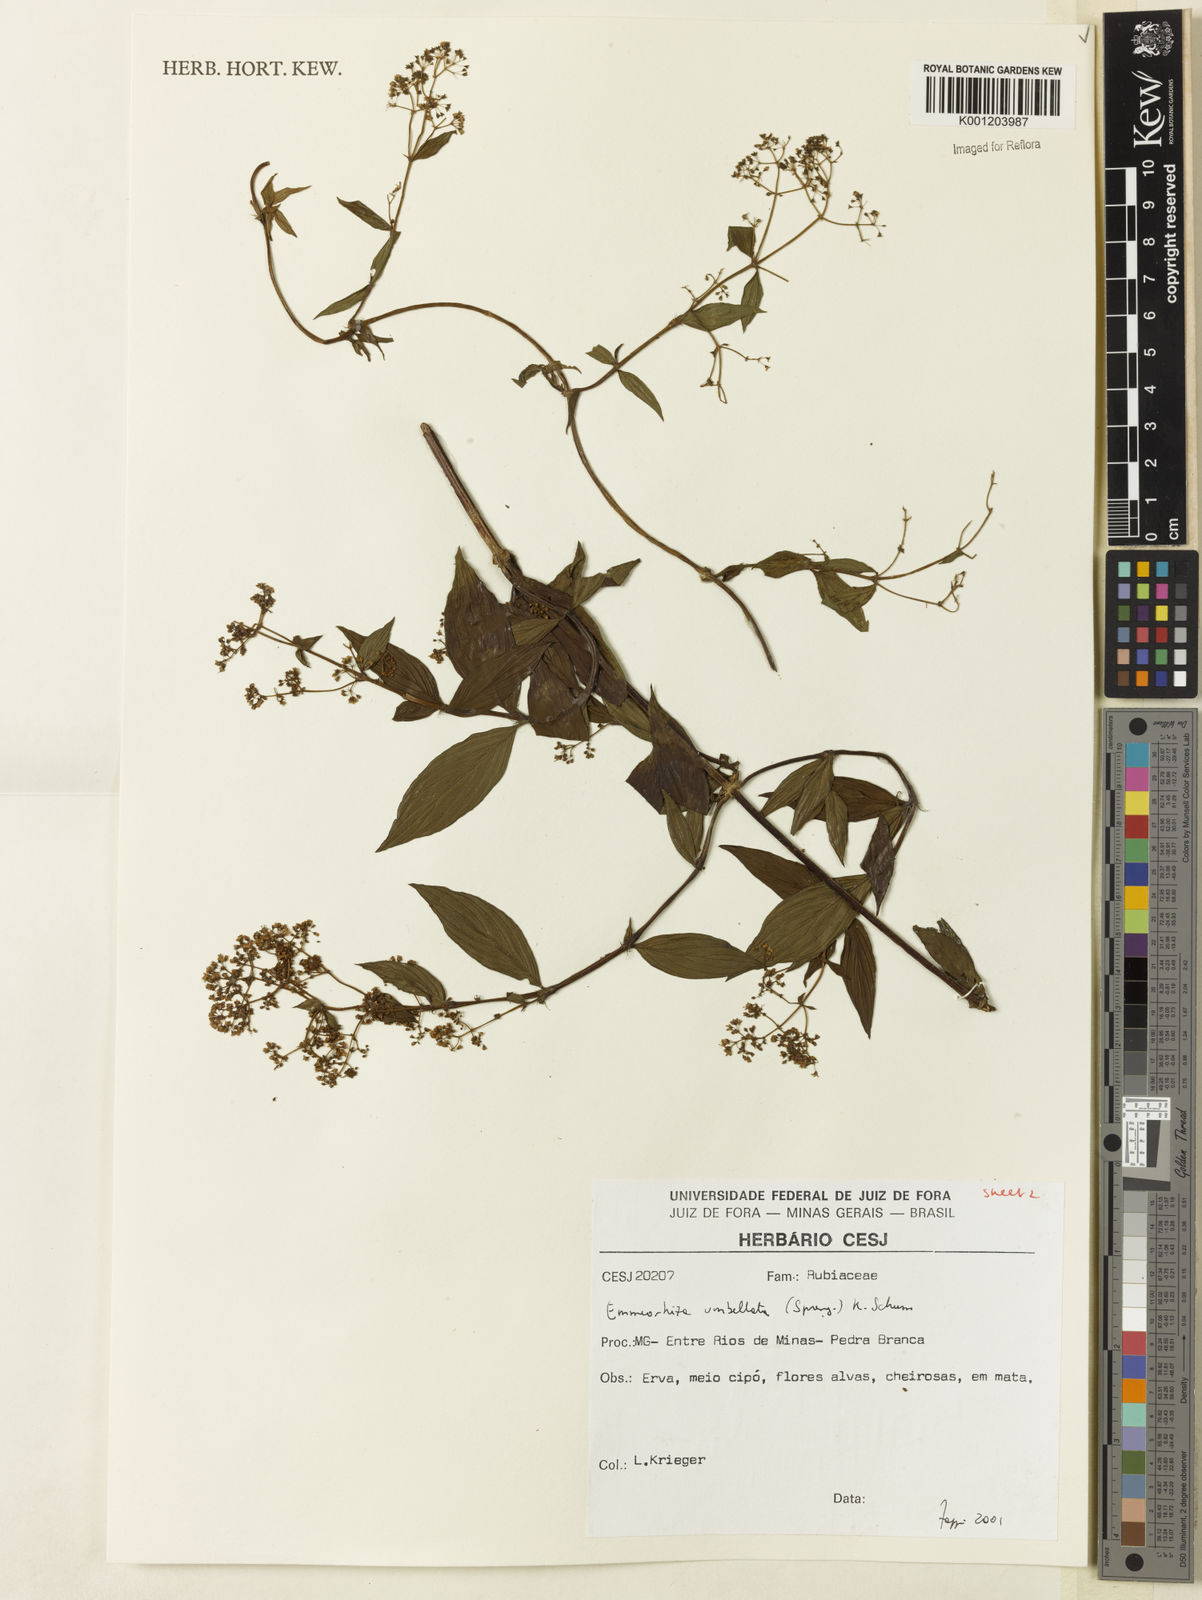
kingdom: Plantae
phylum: Tracheophyta
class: Magnoliopsida
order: Gentianales
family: Rubiaceae
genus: Emmeorhiza
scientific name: Emmeorhiza umbellata
